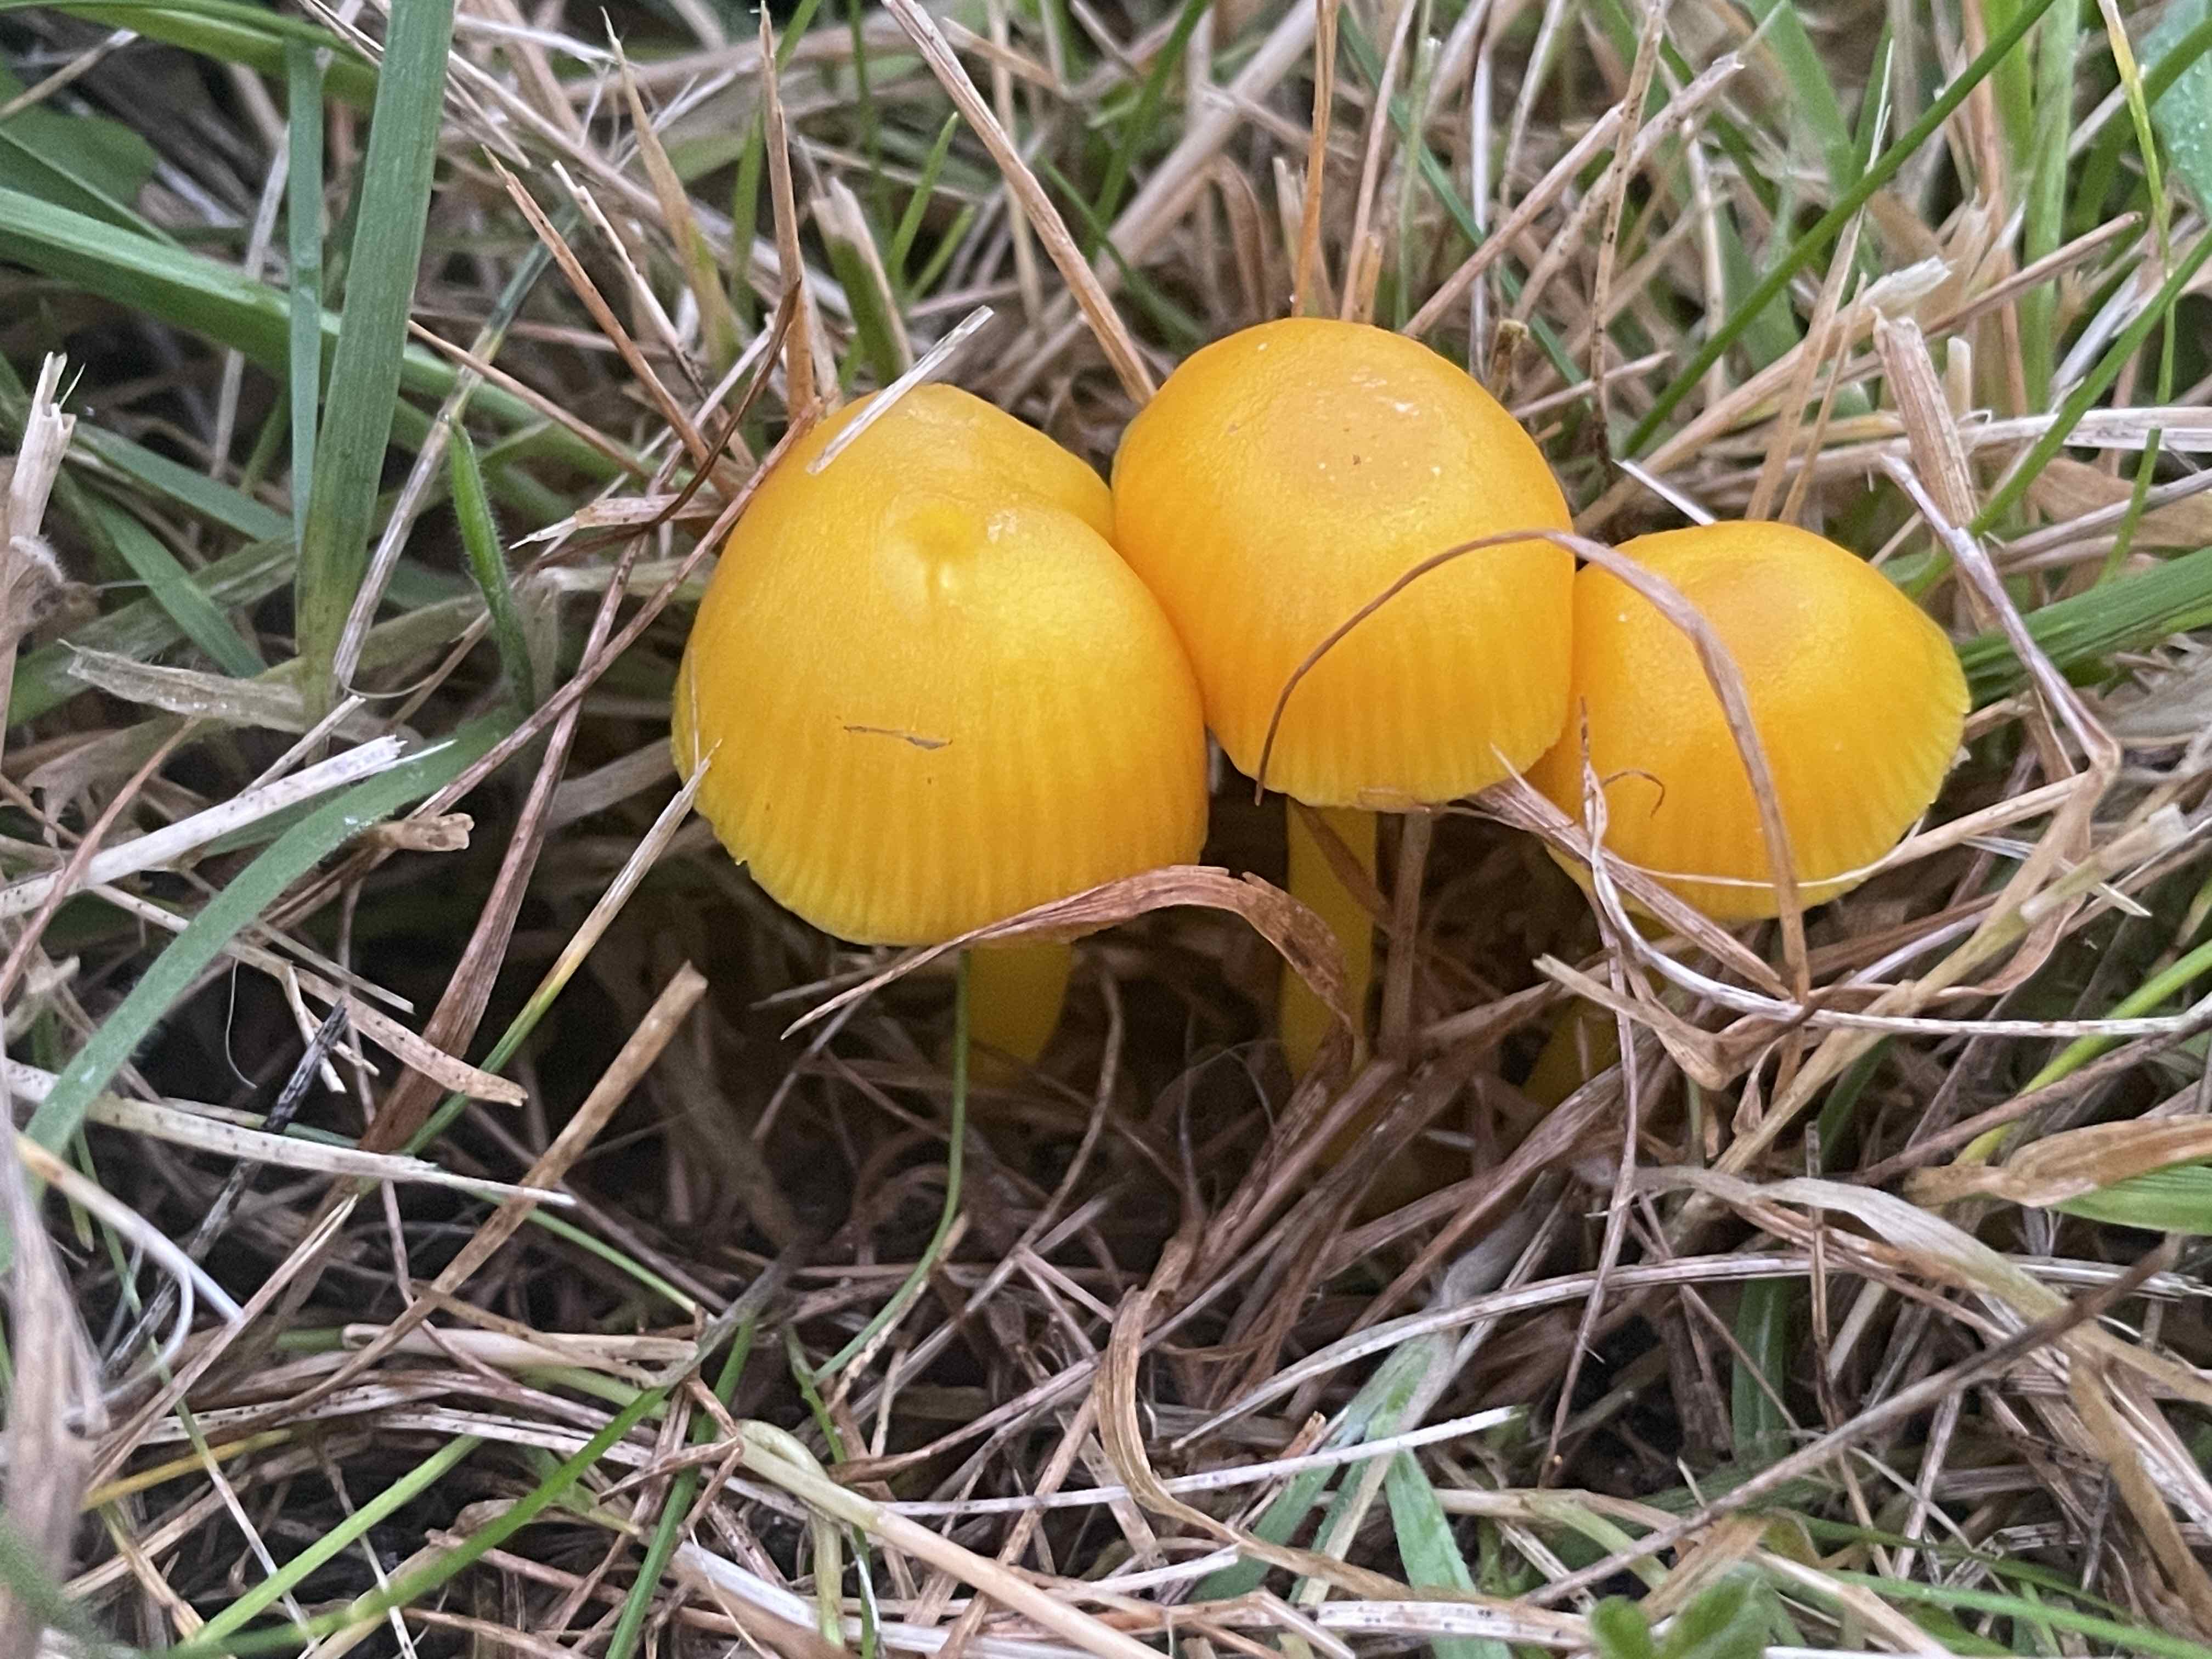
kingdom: Fungi
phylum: Basidiomycota
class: Agaricomycetes
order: Agaricales
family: Hygrophoraceae
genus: Hygrocybe
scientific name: Hygrocybe ceracea
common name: voksgul vokshat
